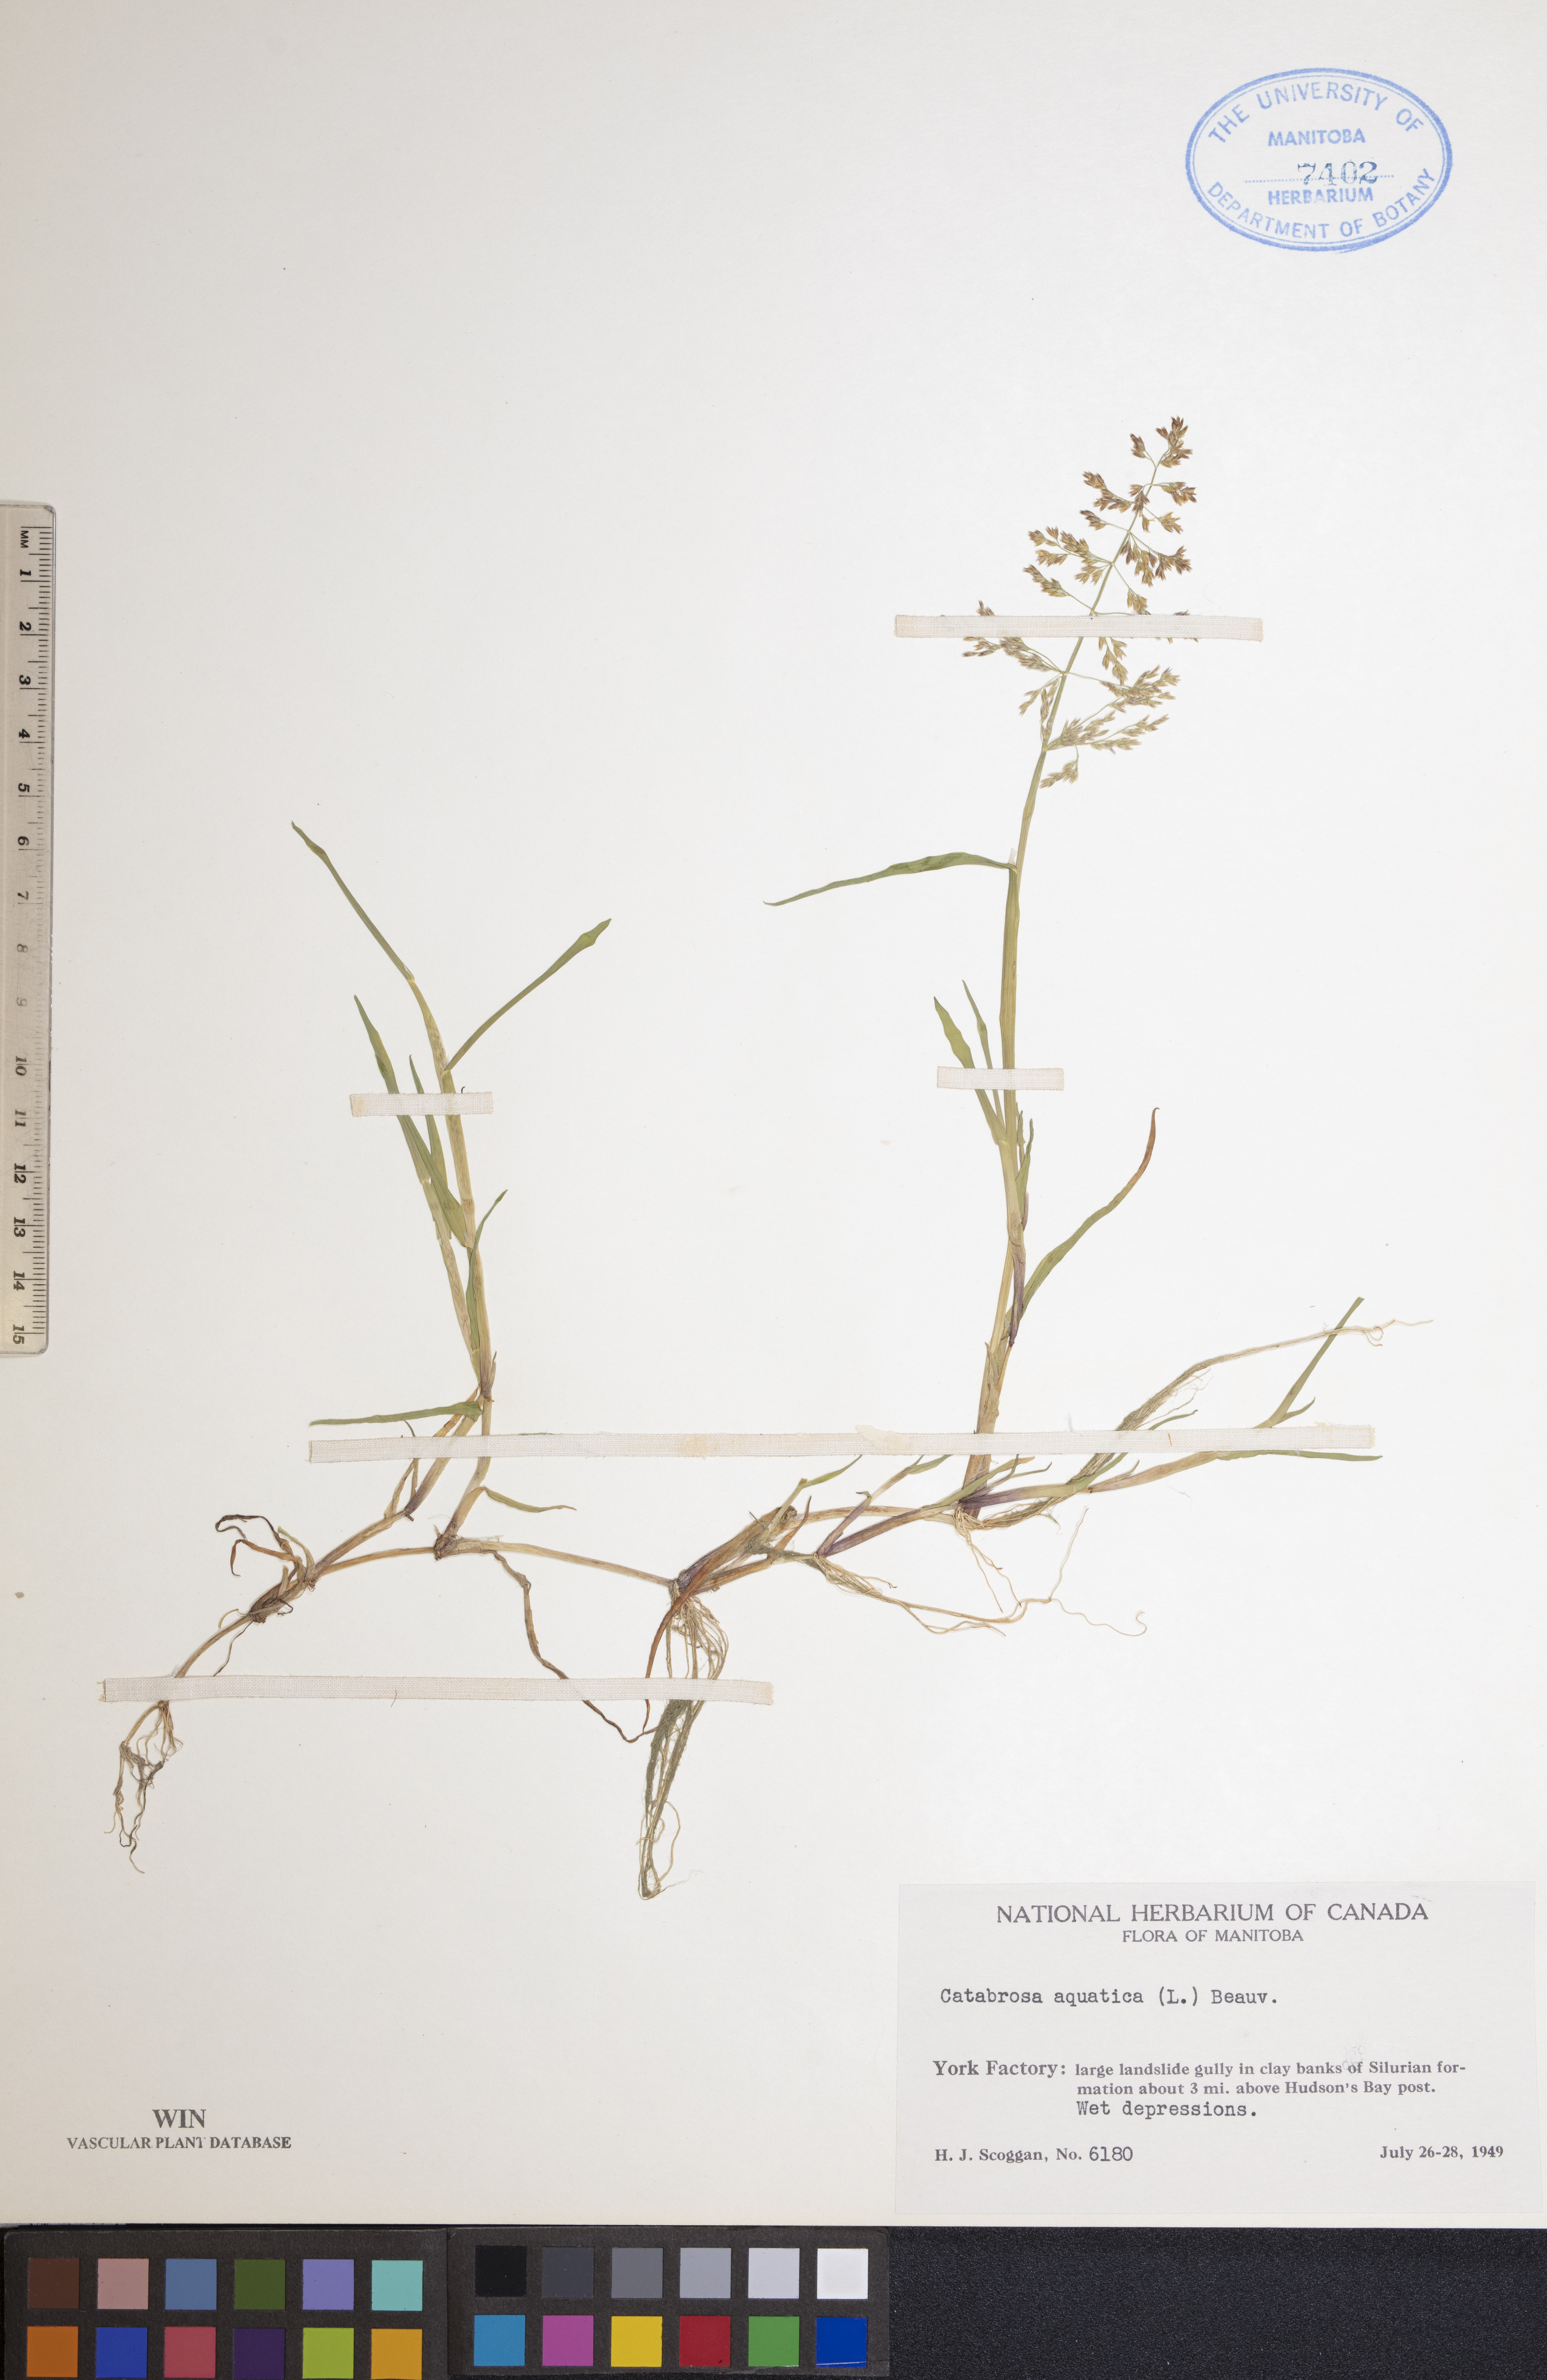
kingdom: Plantae
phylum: Tracheophyta
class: Liliopsida
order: Poales
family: Poaceae
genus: Catabrosa
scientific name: Catabrosa aquatica
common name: Whorl-grass
